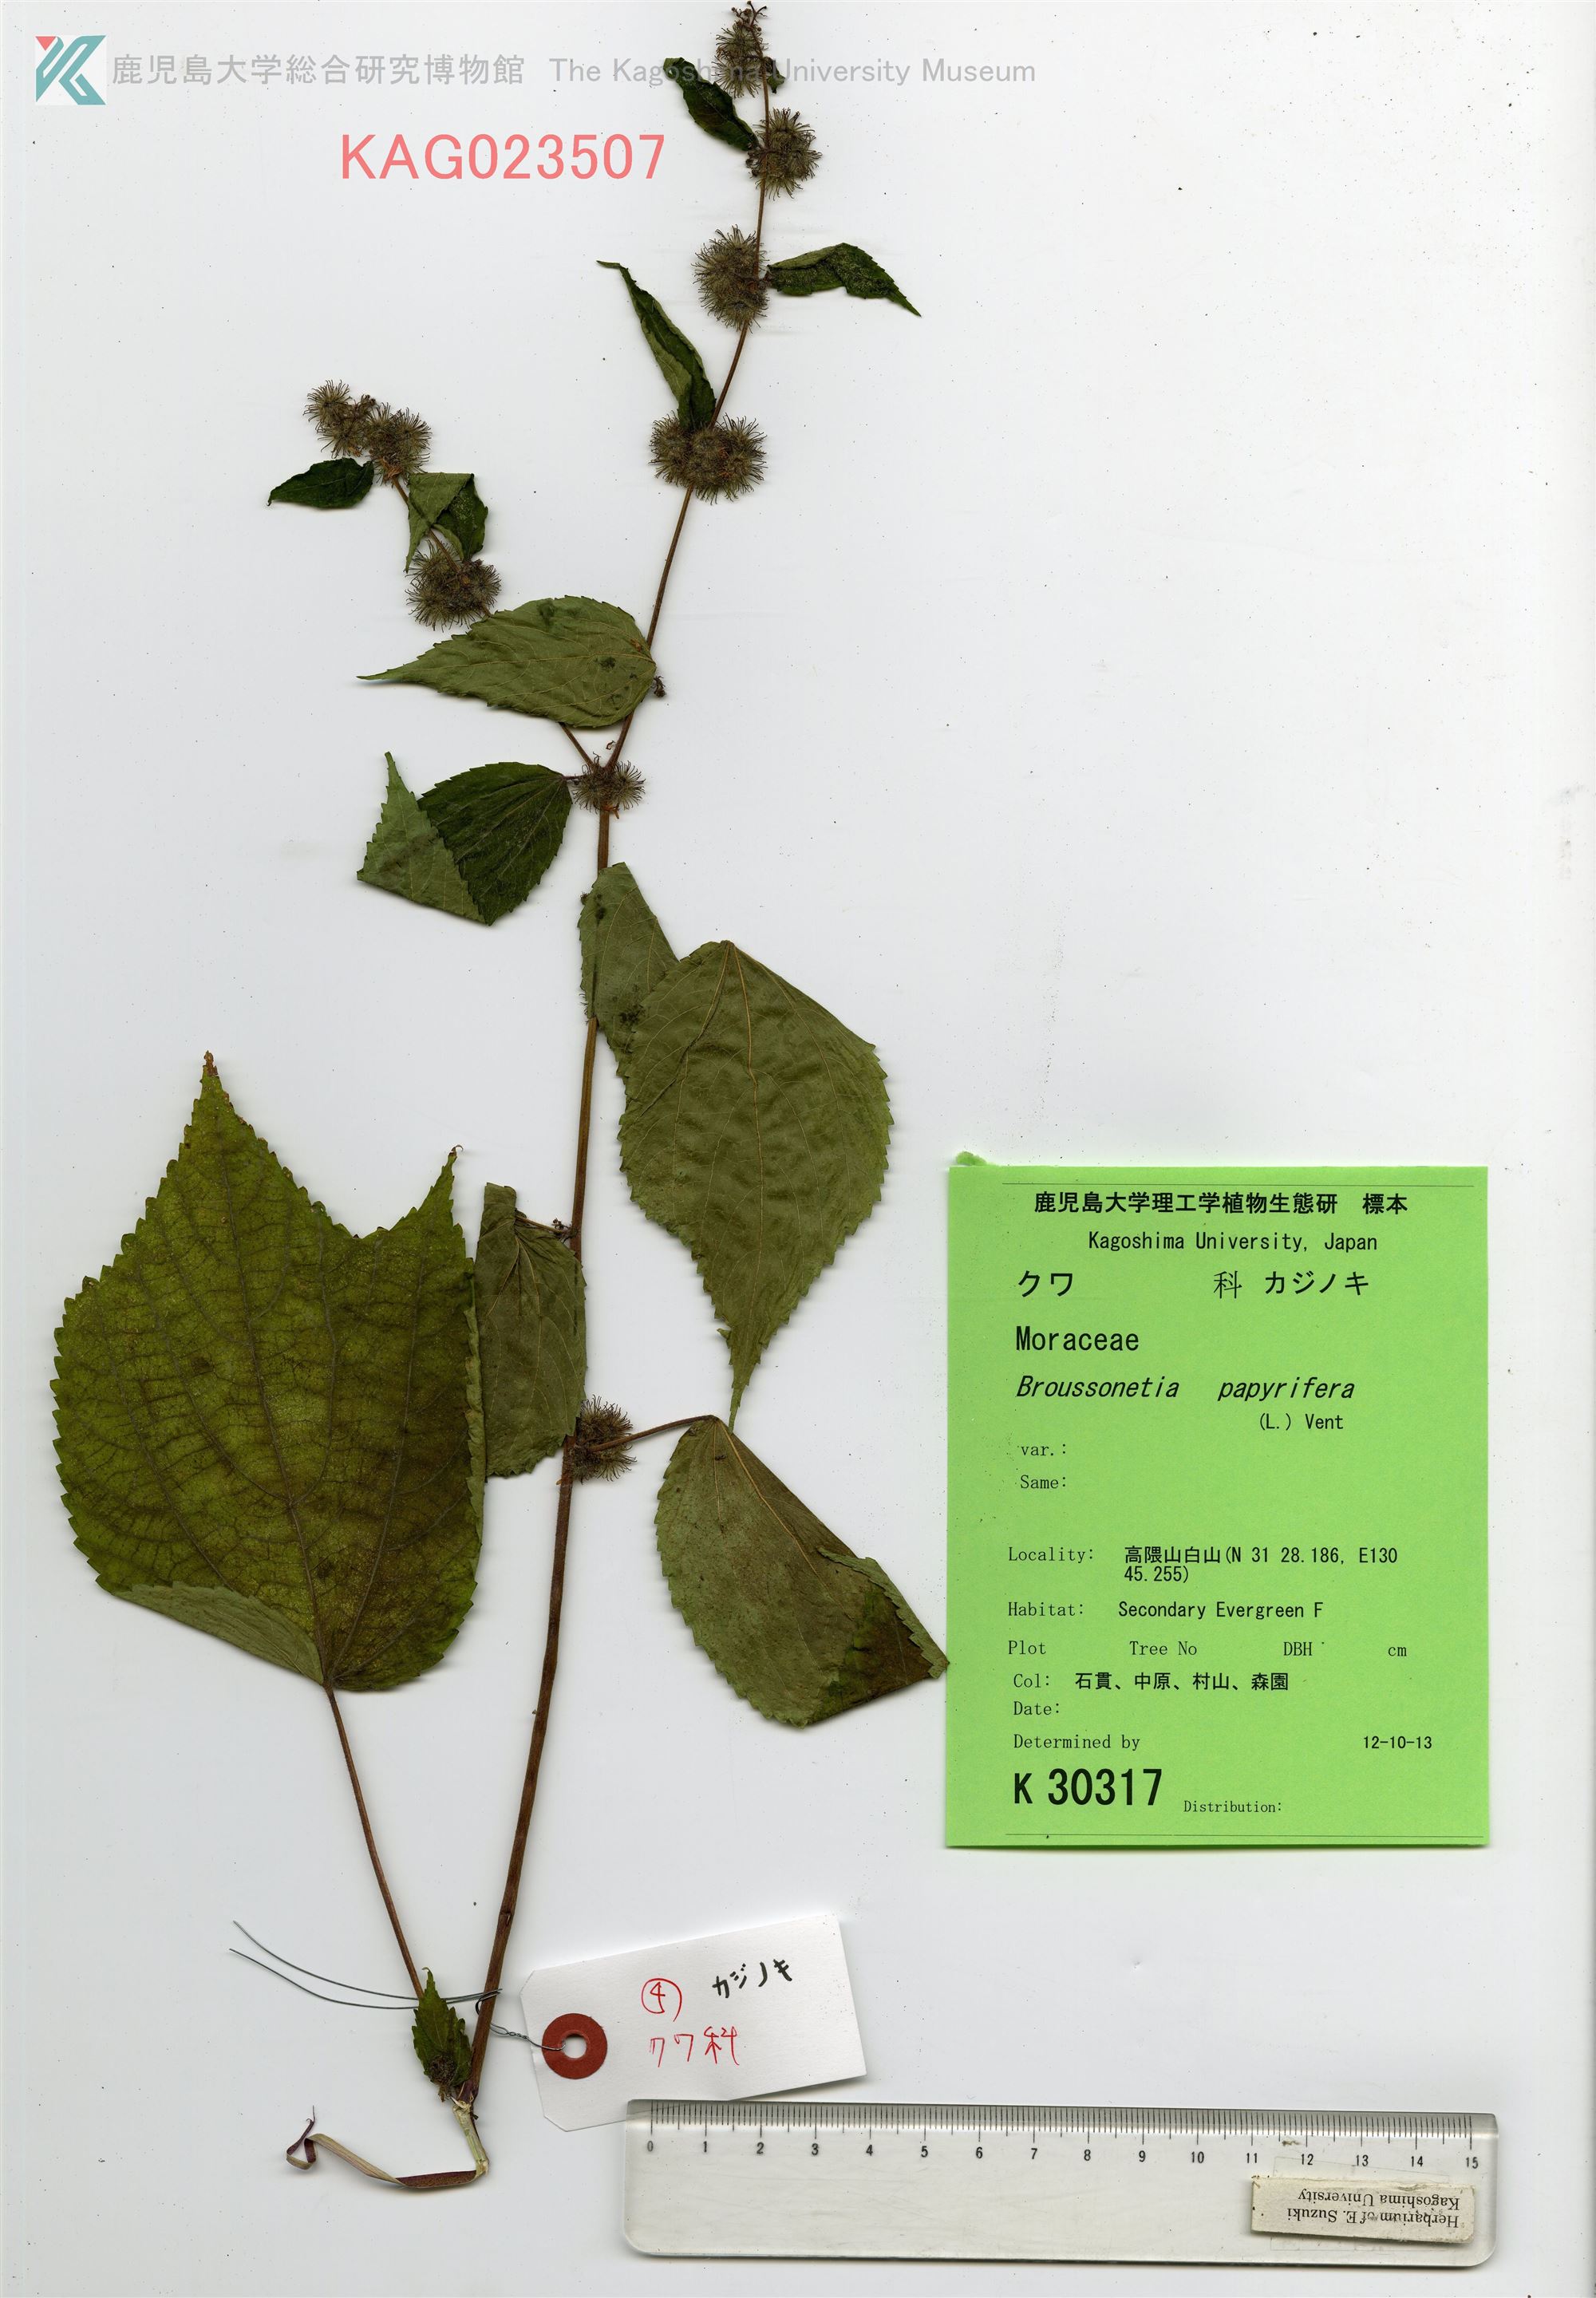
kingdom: Plantae
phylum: Tracheophyta
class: Magnoliopsida
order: Rosales
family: Moraceae
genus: Broussonetia
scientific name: Broussonetia papyrifera
